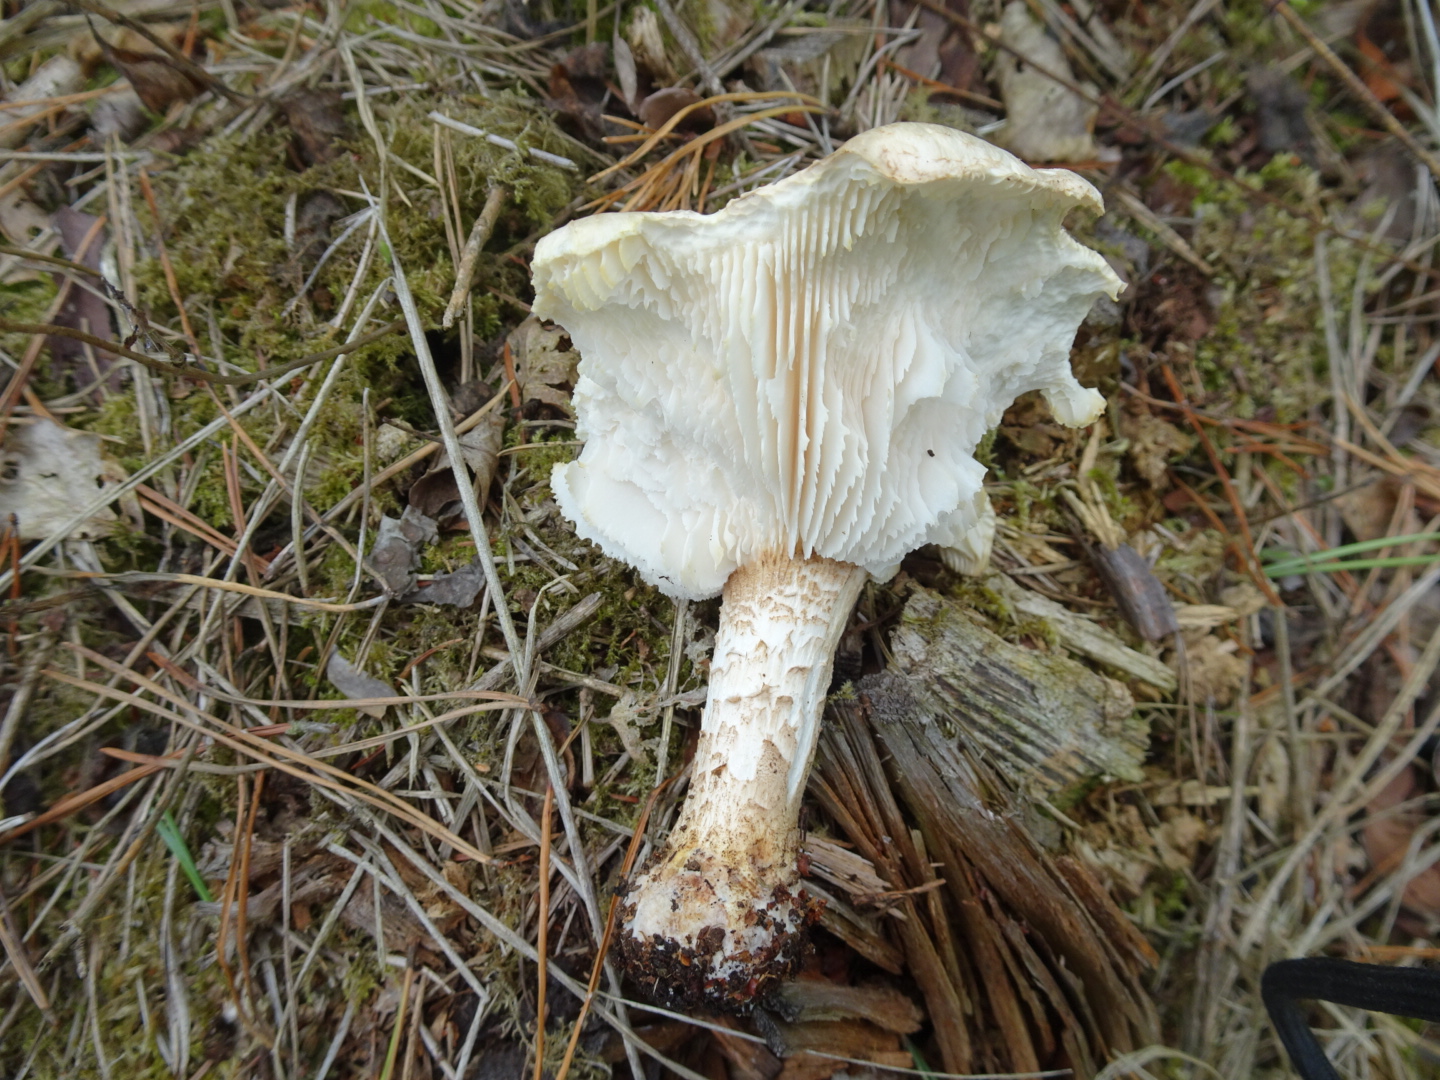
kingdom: Fungi
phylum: Basidiomycota
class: Agaricomycetes
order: Gloeophyllales
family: Gloeophyllaceae
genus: Neolentinus
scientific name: Neolentinus lepideus
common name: skællet sejhat
